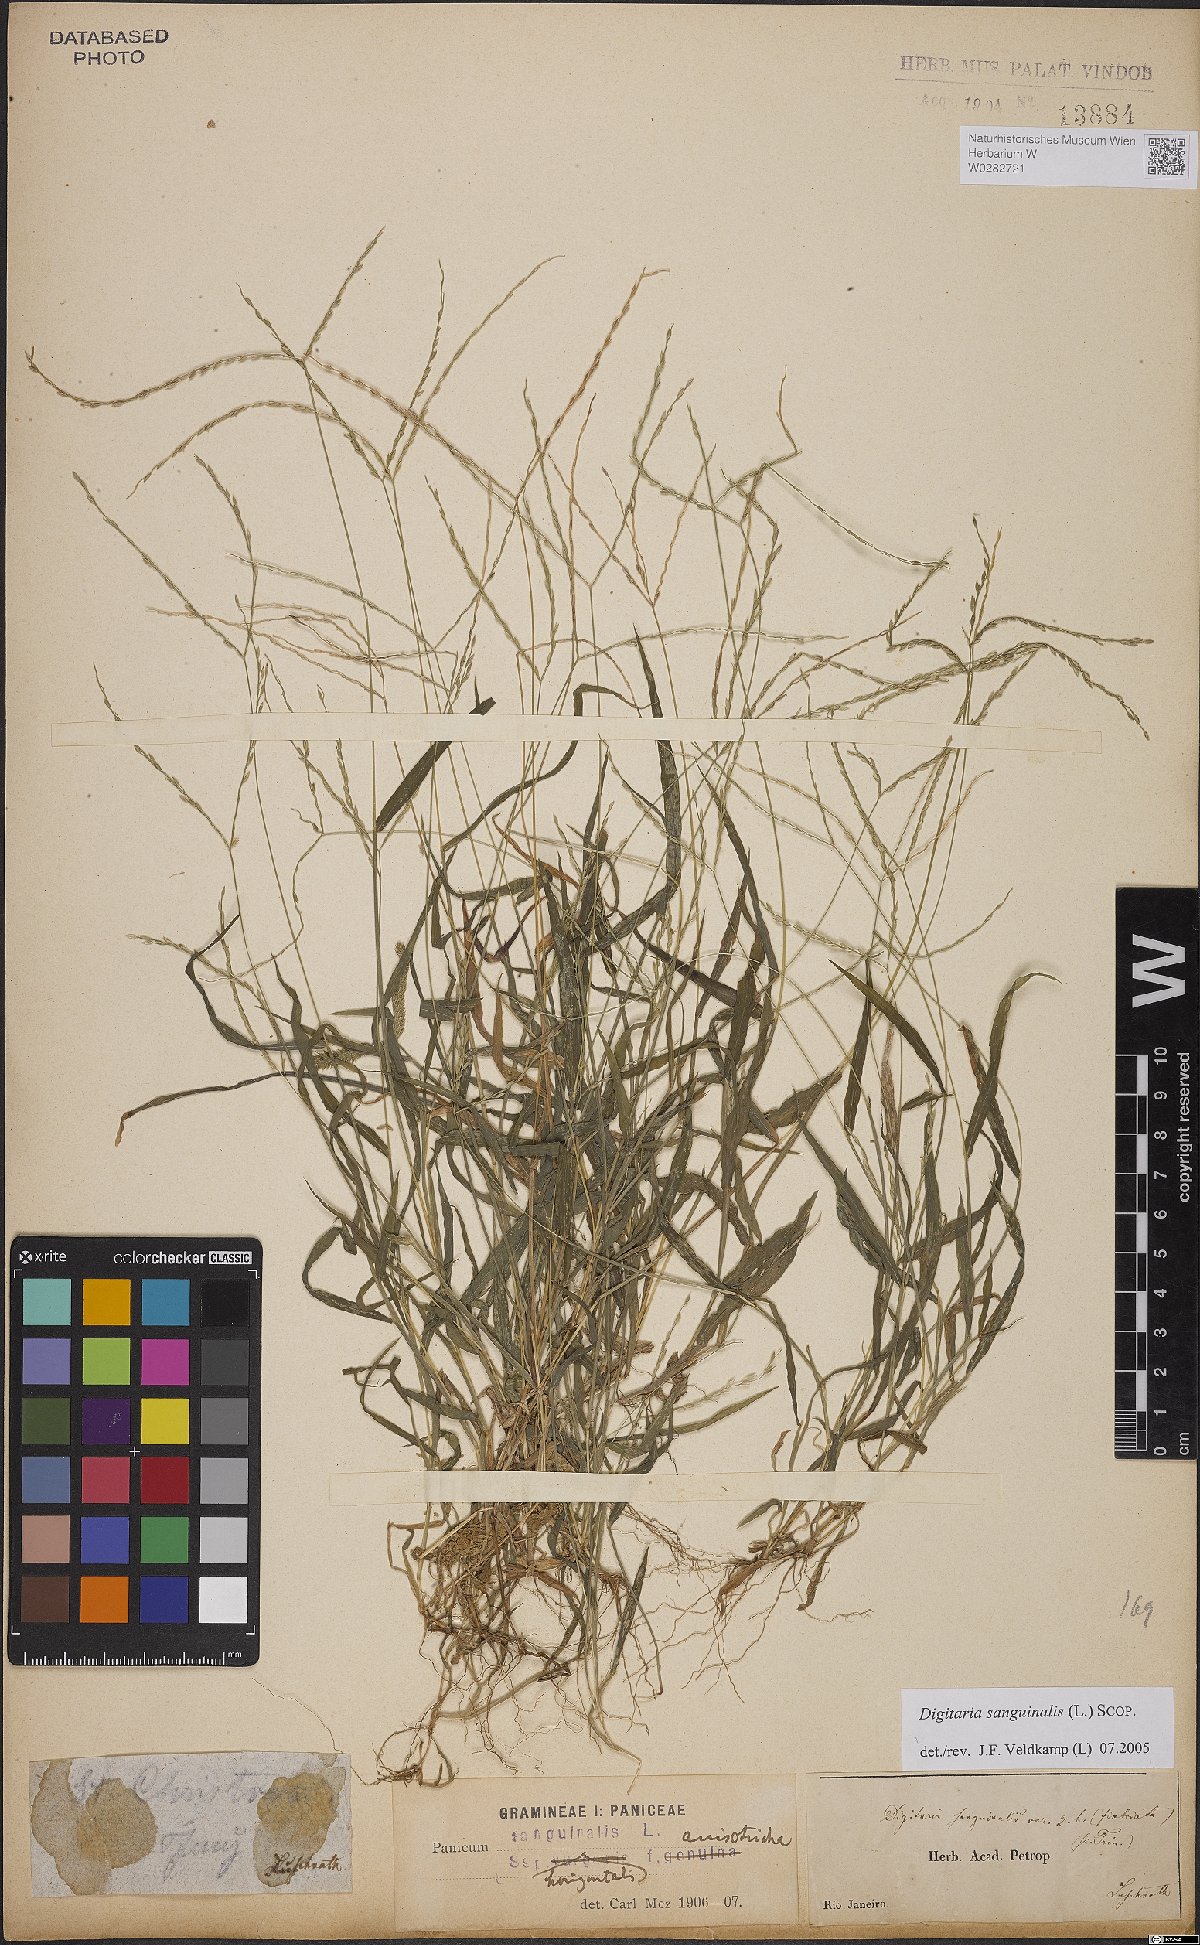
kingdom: Plantae
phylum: Tracheophyta
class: Liliopsida
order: Poales
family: Poaceae
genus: Digitaria
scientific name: Digitaria sanguinalis
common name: Hairy crabgrass
